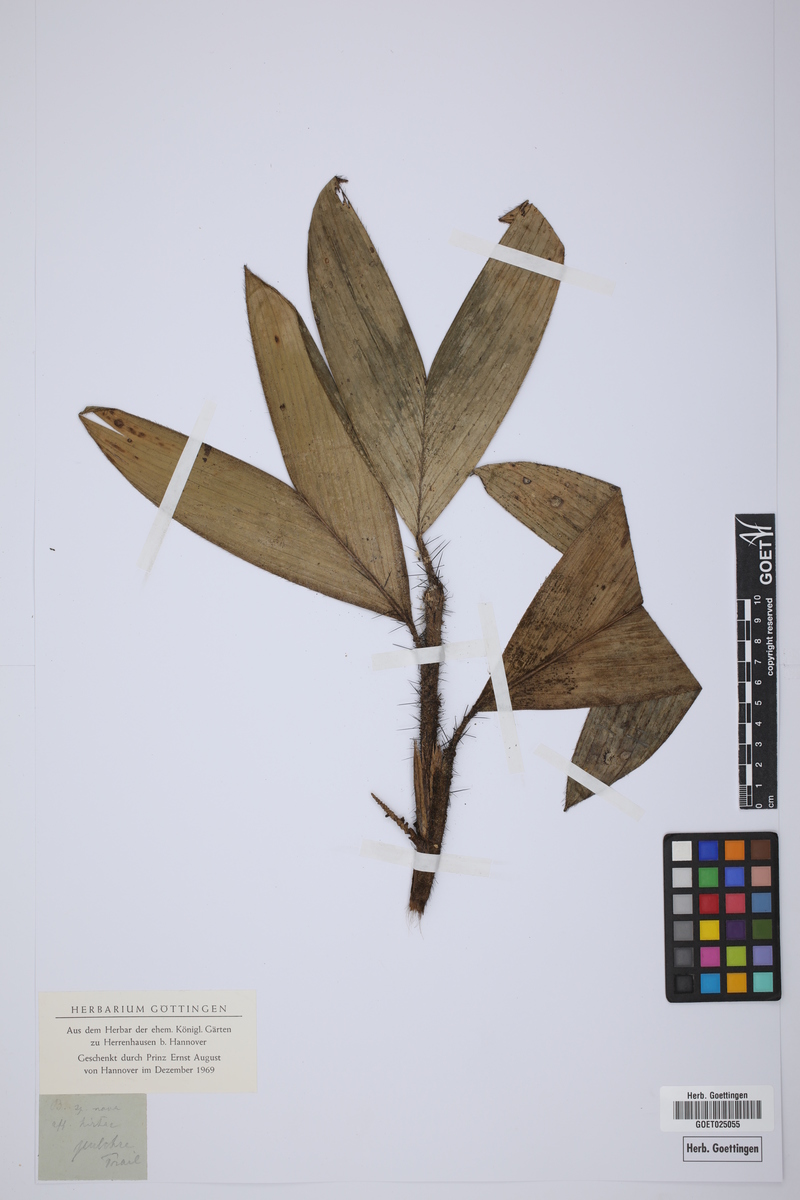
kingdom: Plantae
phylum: Tracheophyta
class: Liliopsida
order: Arecales
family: Arecaceae
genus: Bactris
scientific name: Bactris
